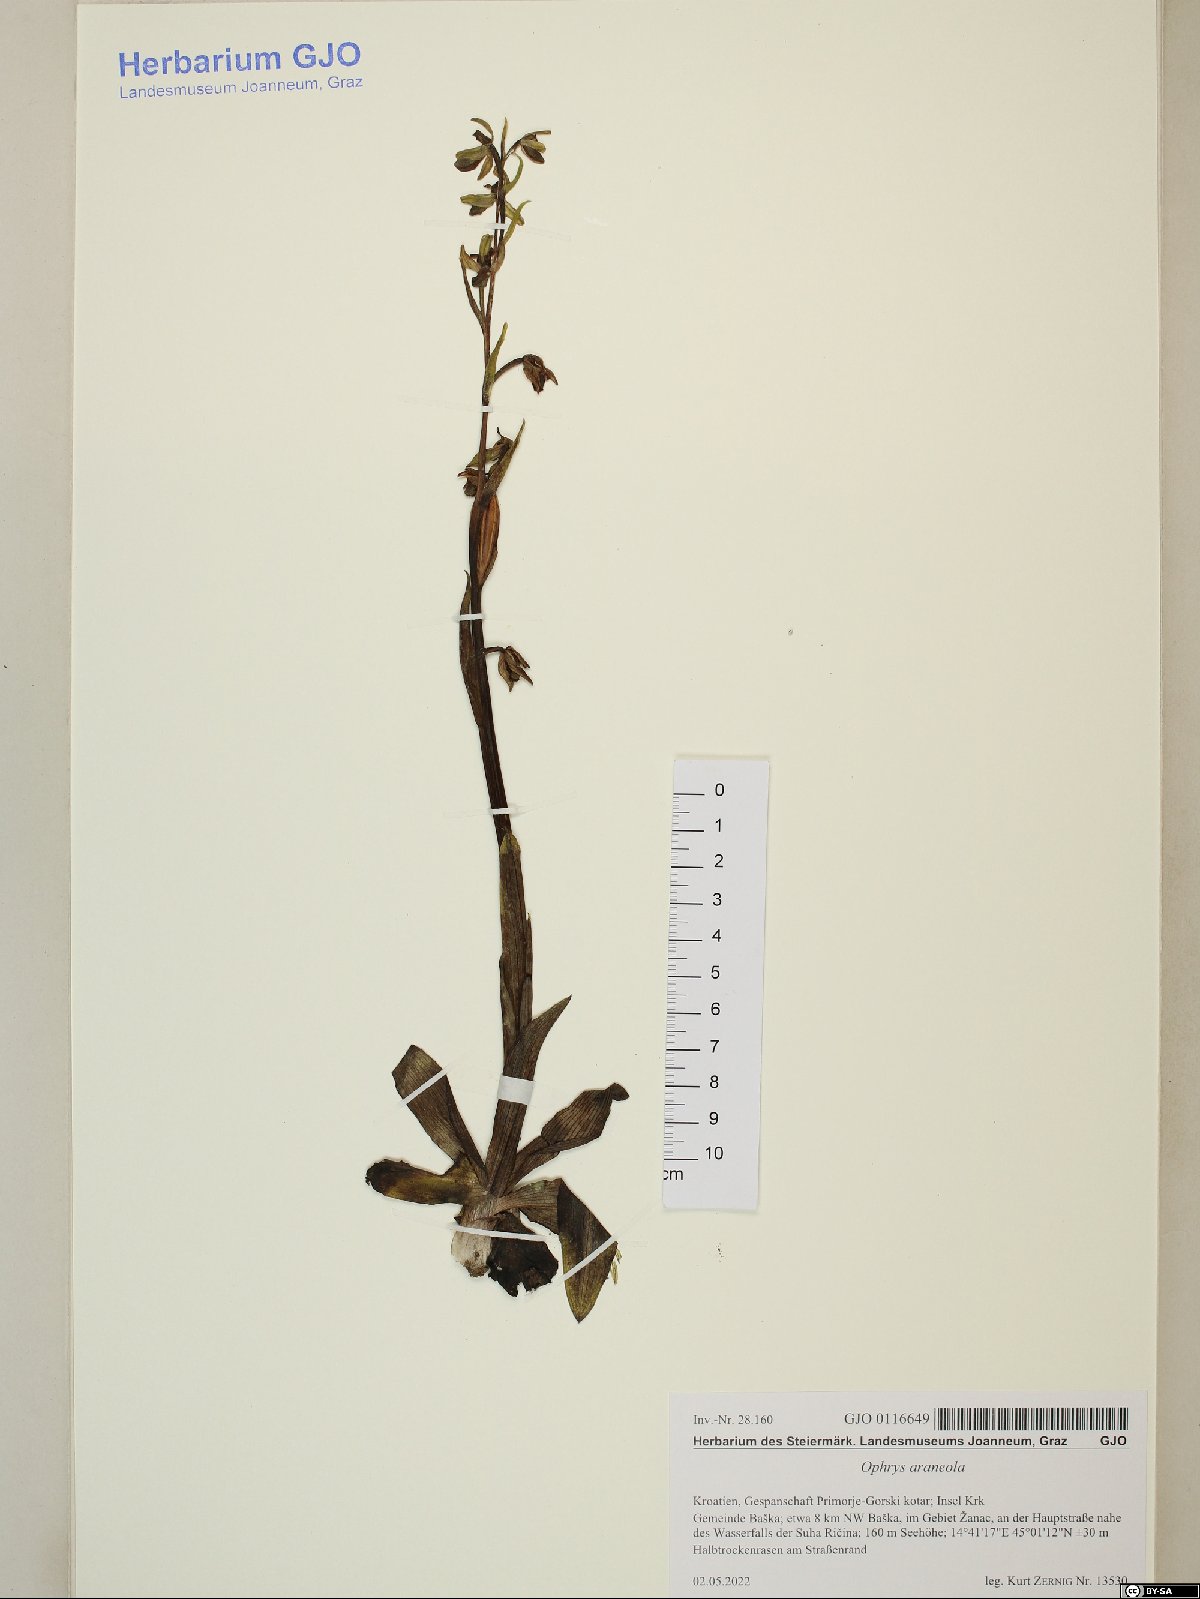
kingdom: Plantae
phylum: Tracheophyta
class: Liliopsida
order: Asparagales
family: Orchidaceae
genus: Ophrys
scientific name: Ophrys sphegodes
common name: Early spider-orchid
